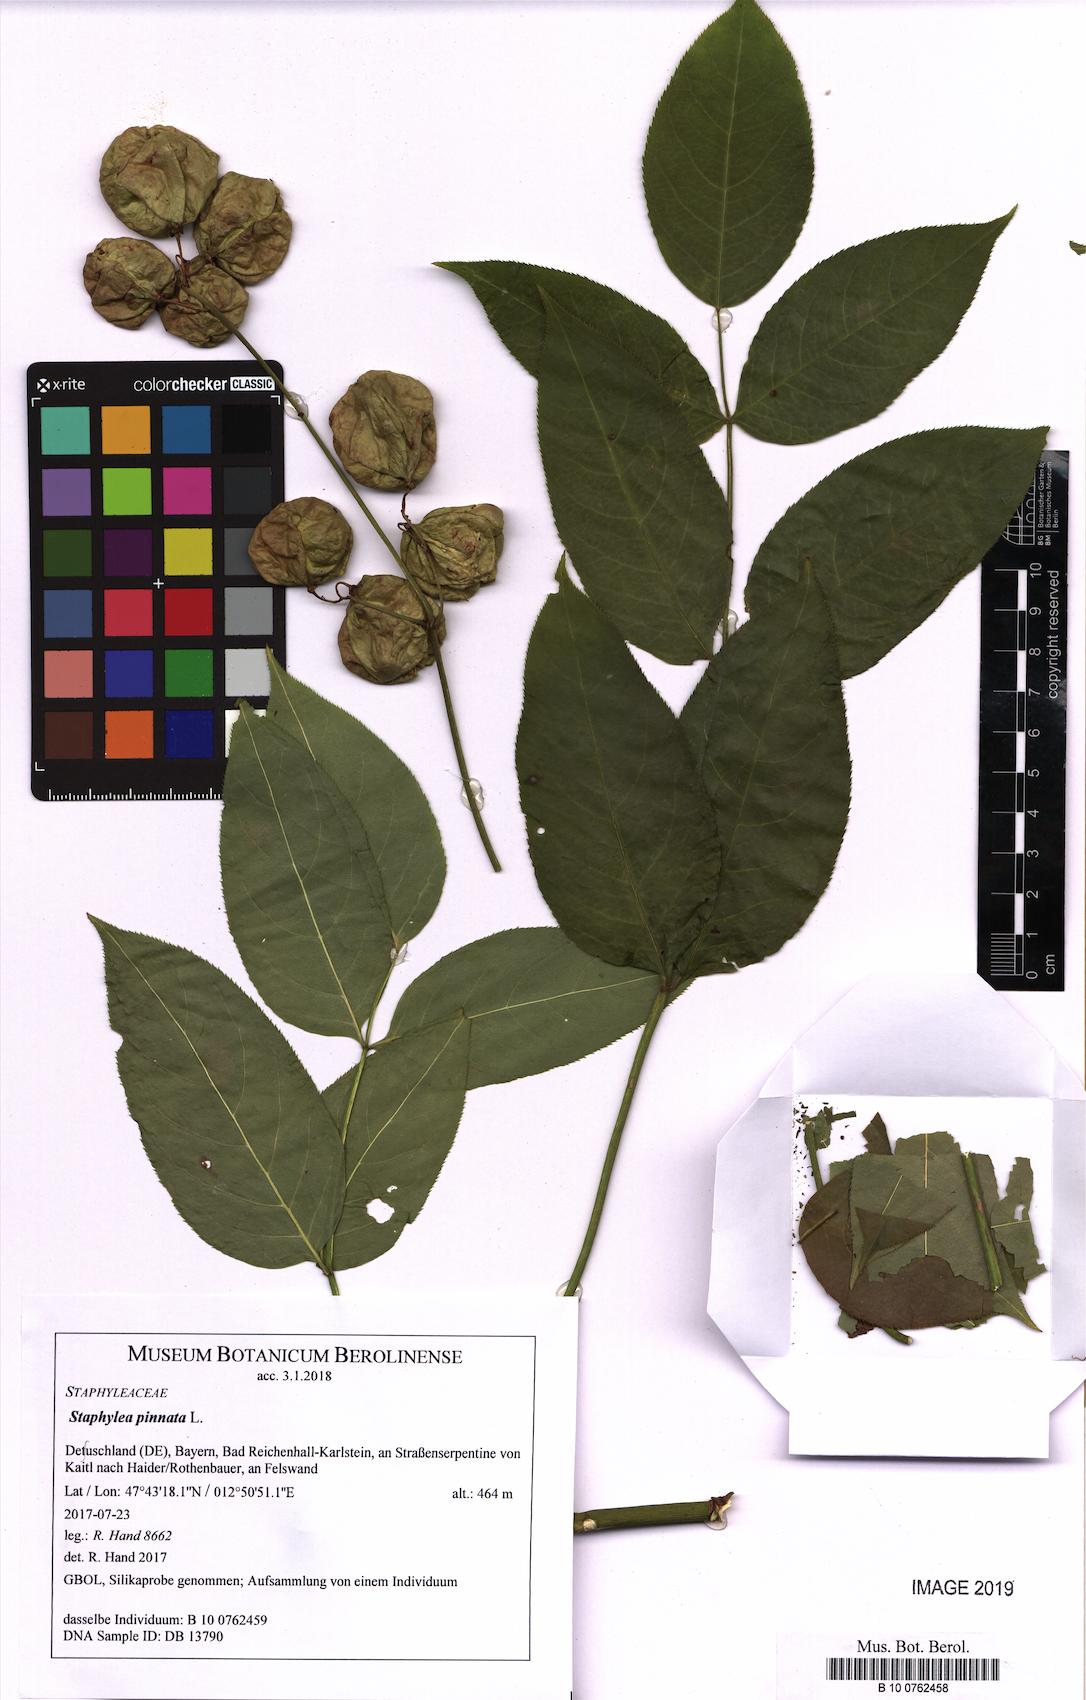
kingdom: Plantae
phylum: Tracheophyta
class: Magnoliopsida
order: Crossosomatales
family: Staphyleaceae
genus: Staphylea
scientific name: Staphylea pinnata
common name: Bladdernut
